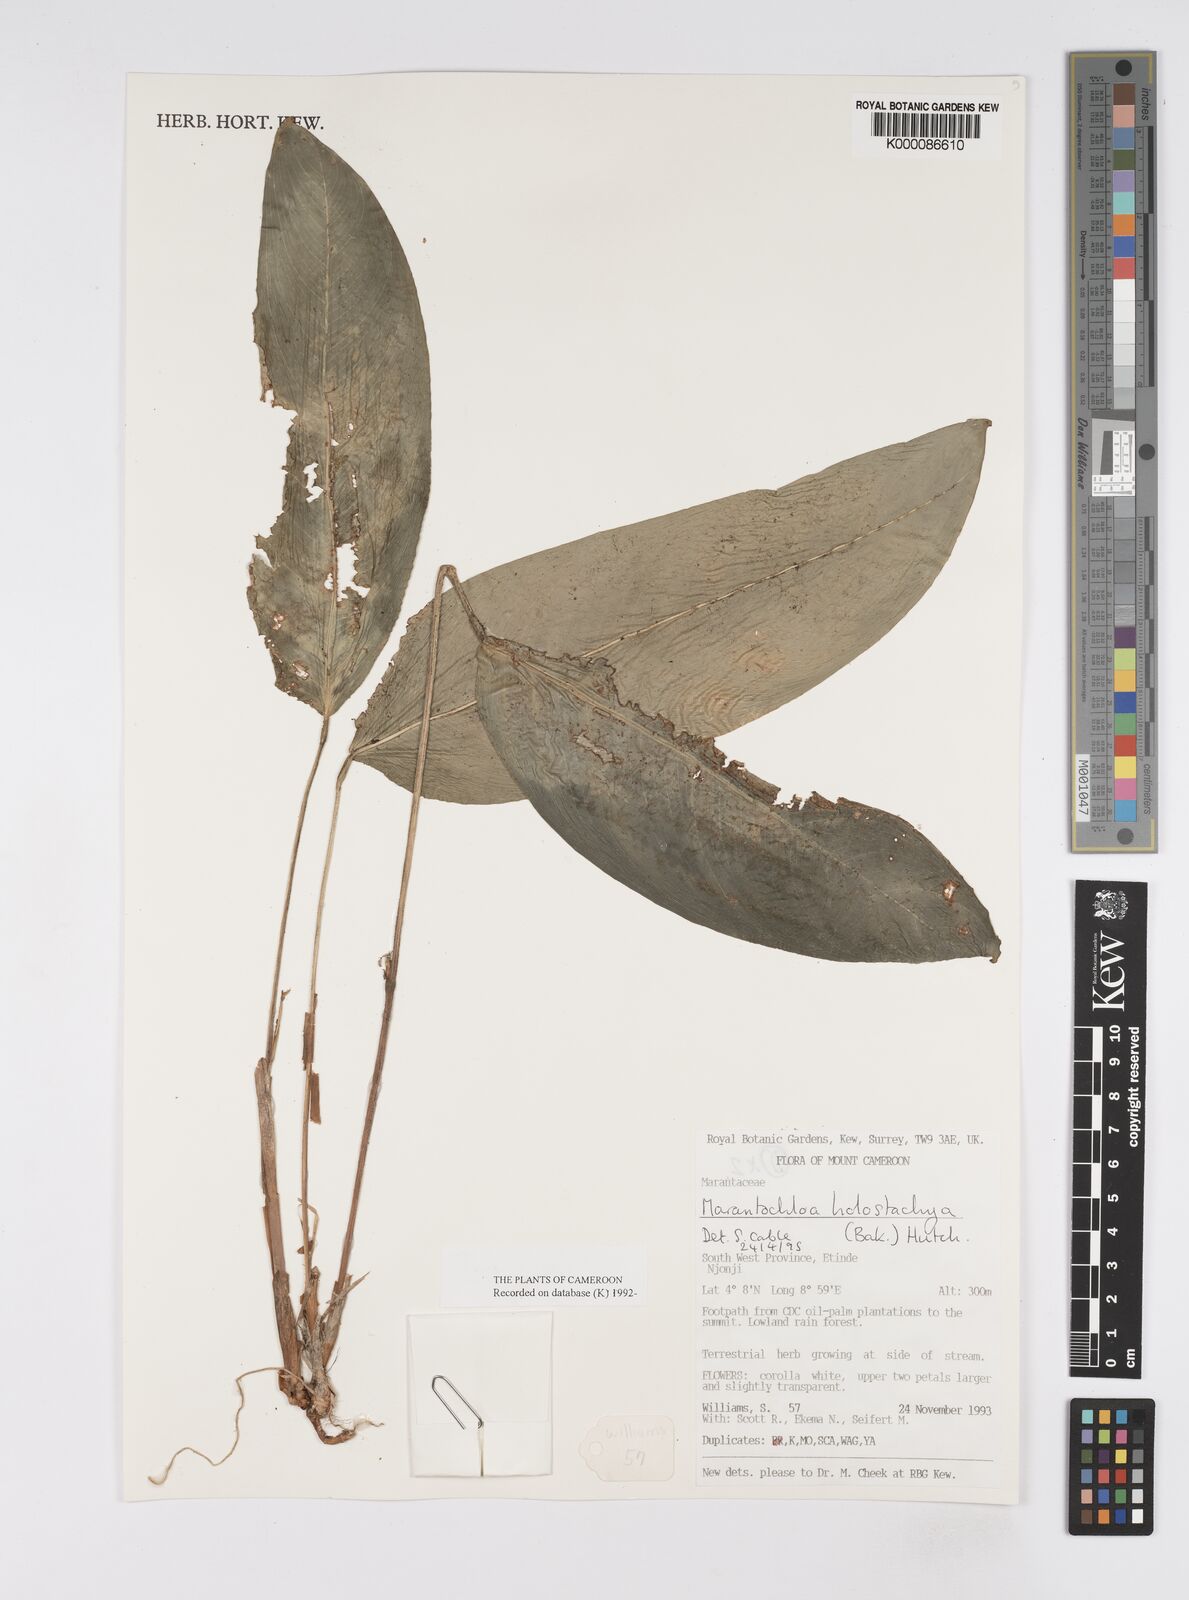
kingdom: Plantae
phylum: Tracheophyta
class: Liliopsida
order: Zingiberales
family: Marantaceae
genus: Marantochloa
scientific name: Marantochloa monophylla
